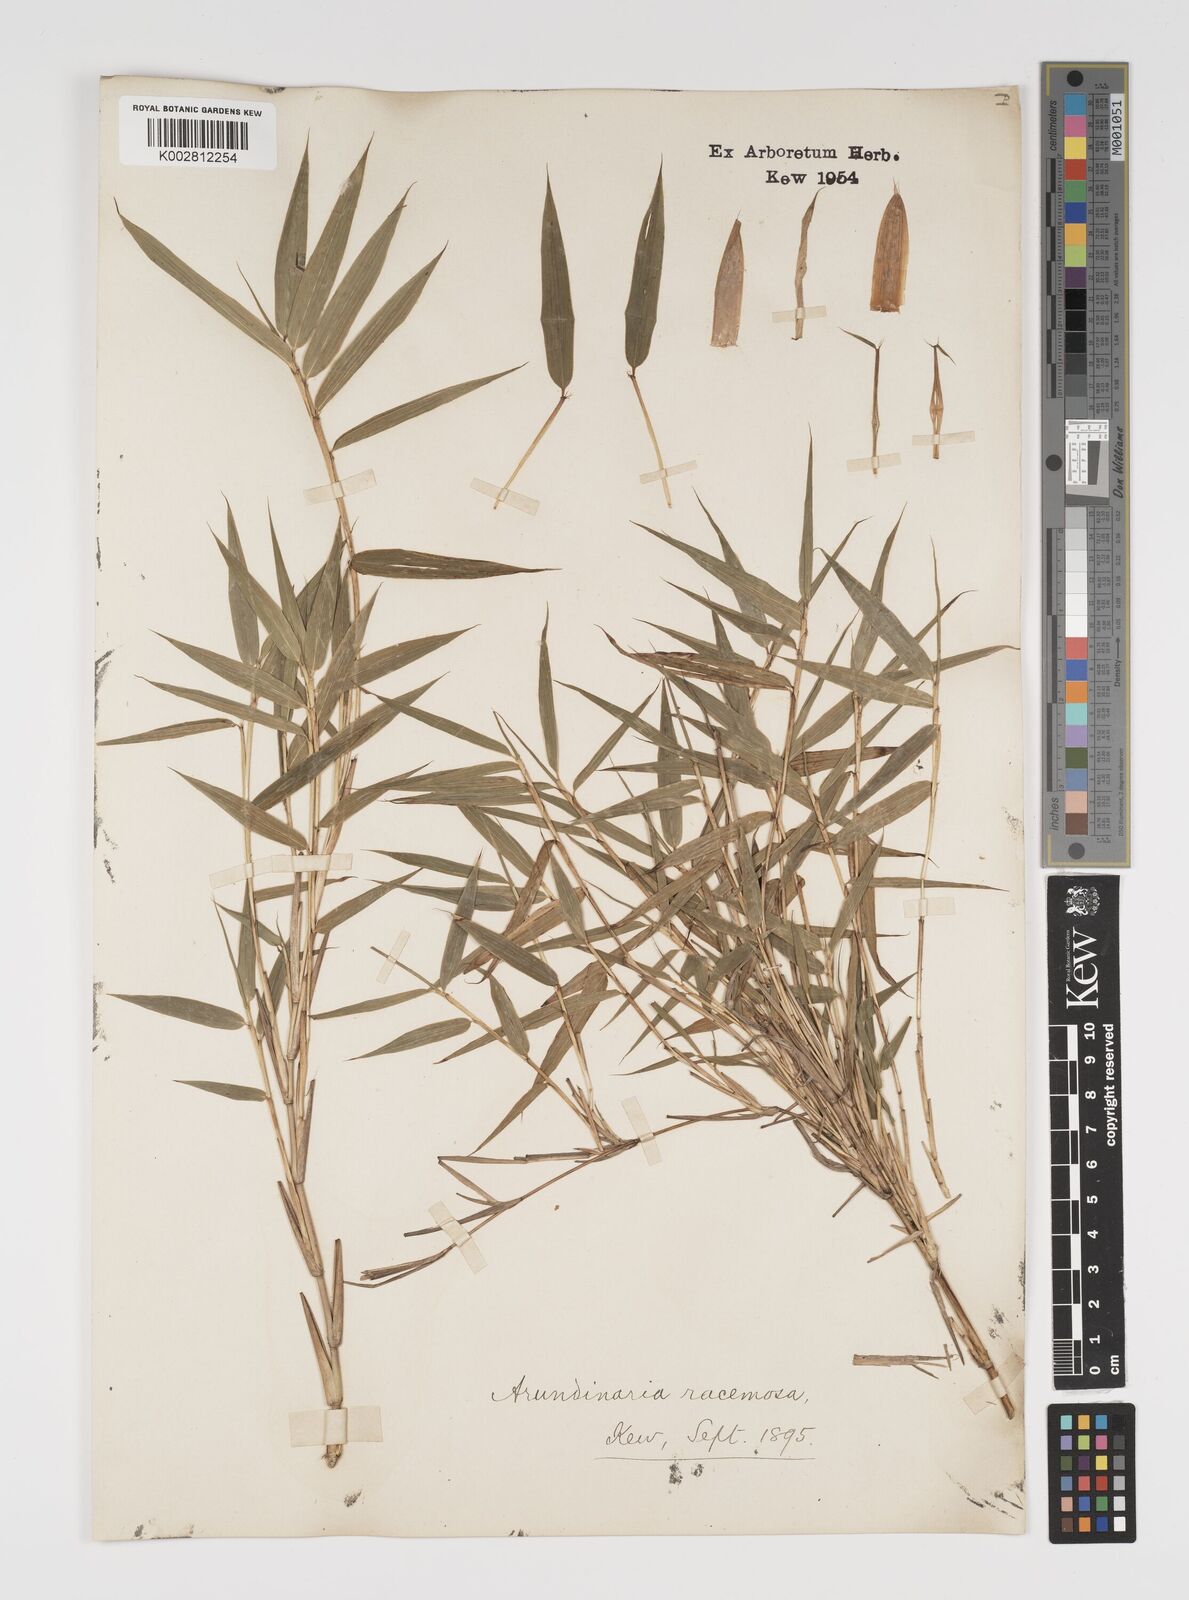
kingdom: Plantae
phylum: Tracheophyta
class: Liliopsida
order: Poales
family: Poaceae
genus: Yushania
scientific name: Yushania maling
